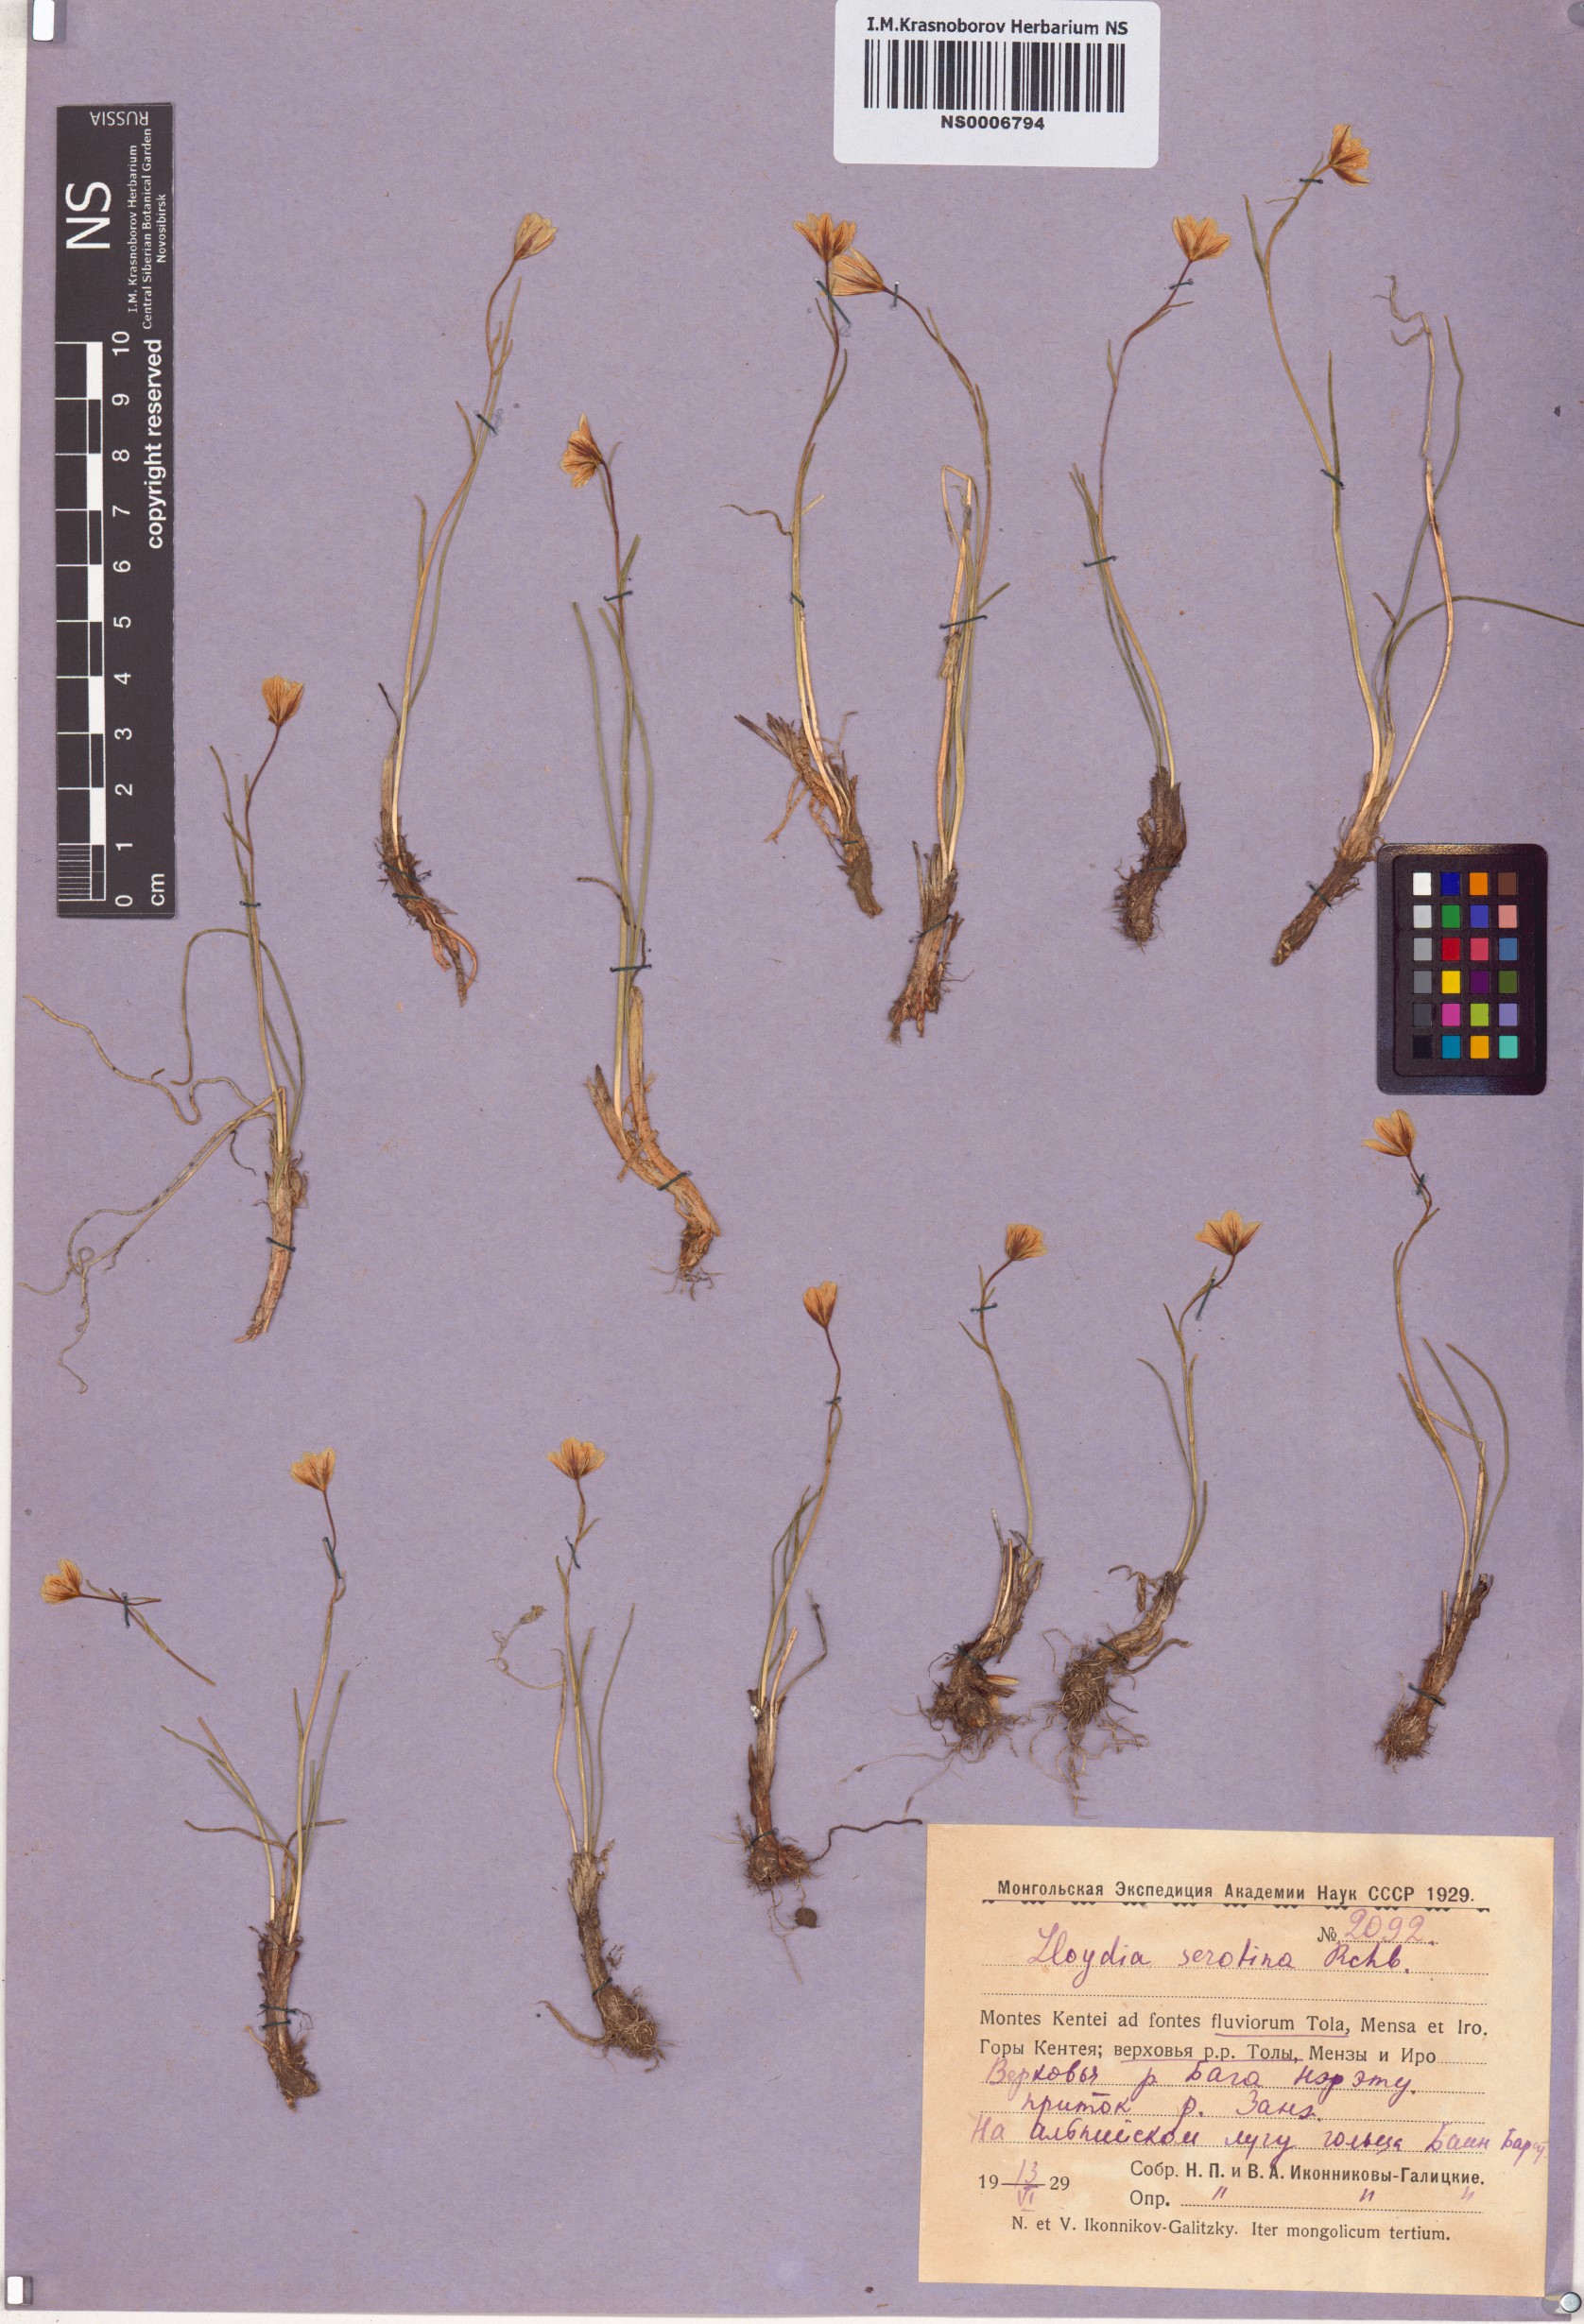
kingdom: Plantae
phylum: Tracheophyta
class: Liliopsida
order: Liliales
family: Liliaceae
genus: Gagea
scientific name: Gagea serotina
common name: Snowdon lily
